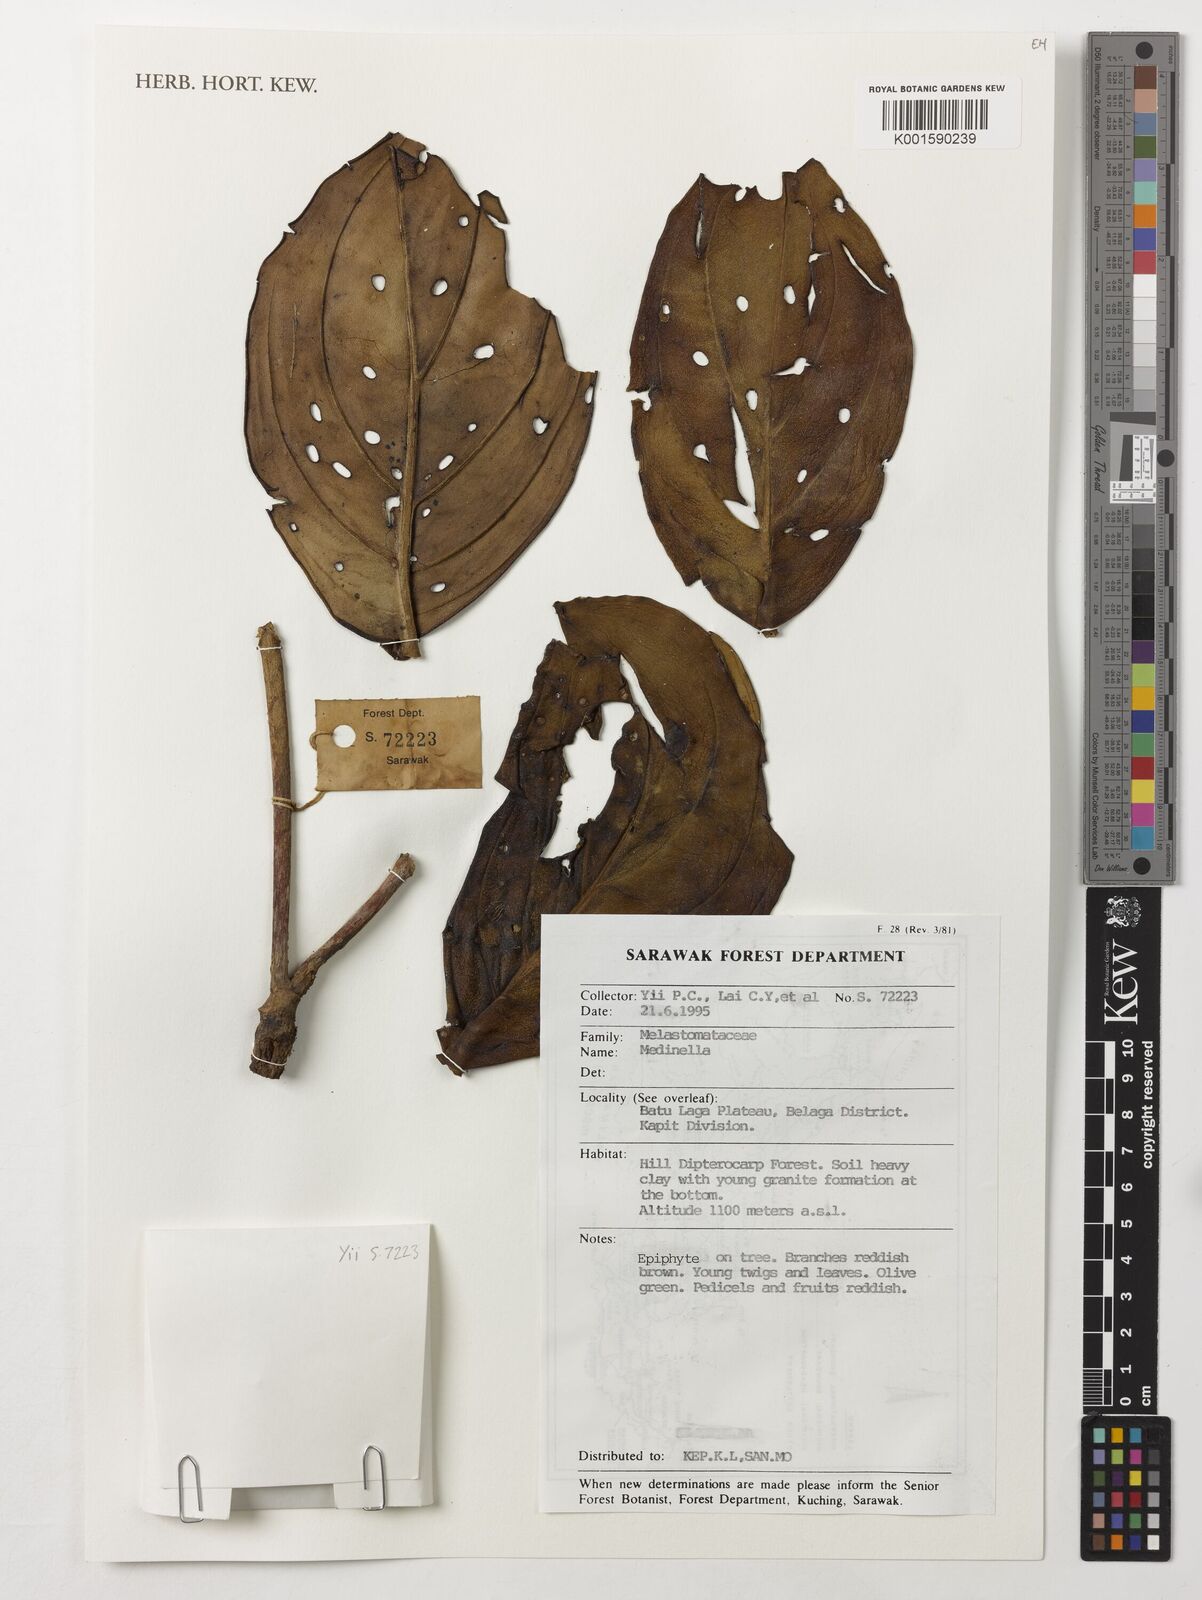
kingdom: Plantae
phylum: Tracheophyta
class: Magnoliopsida
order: Myrtales
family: Melastomataceae
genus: Medinilla
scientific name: Medinilla
